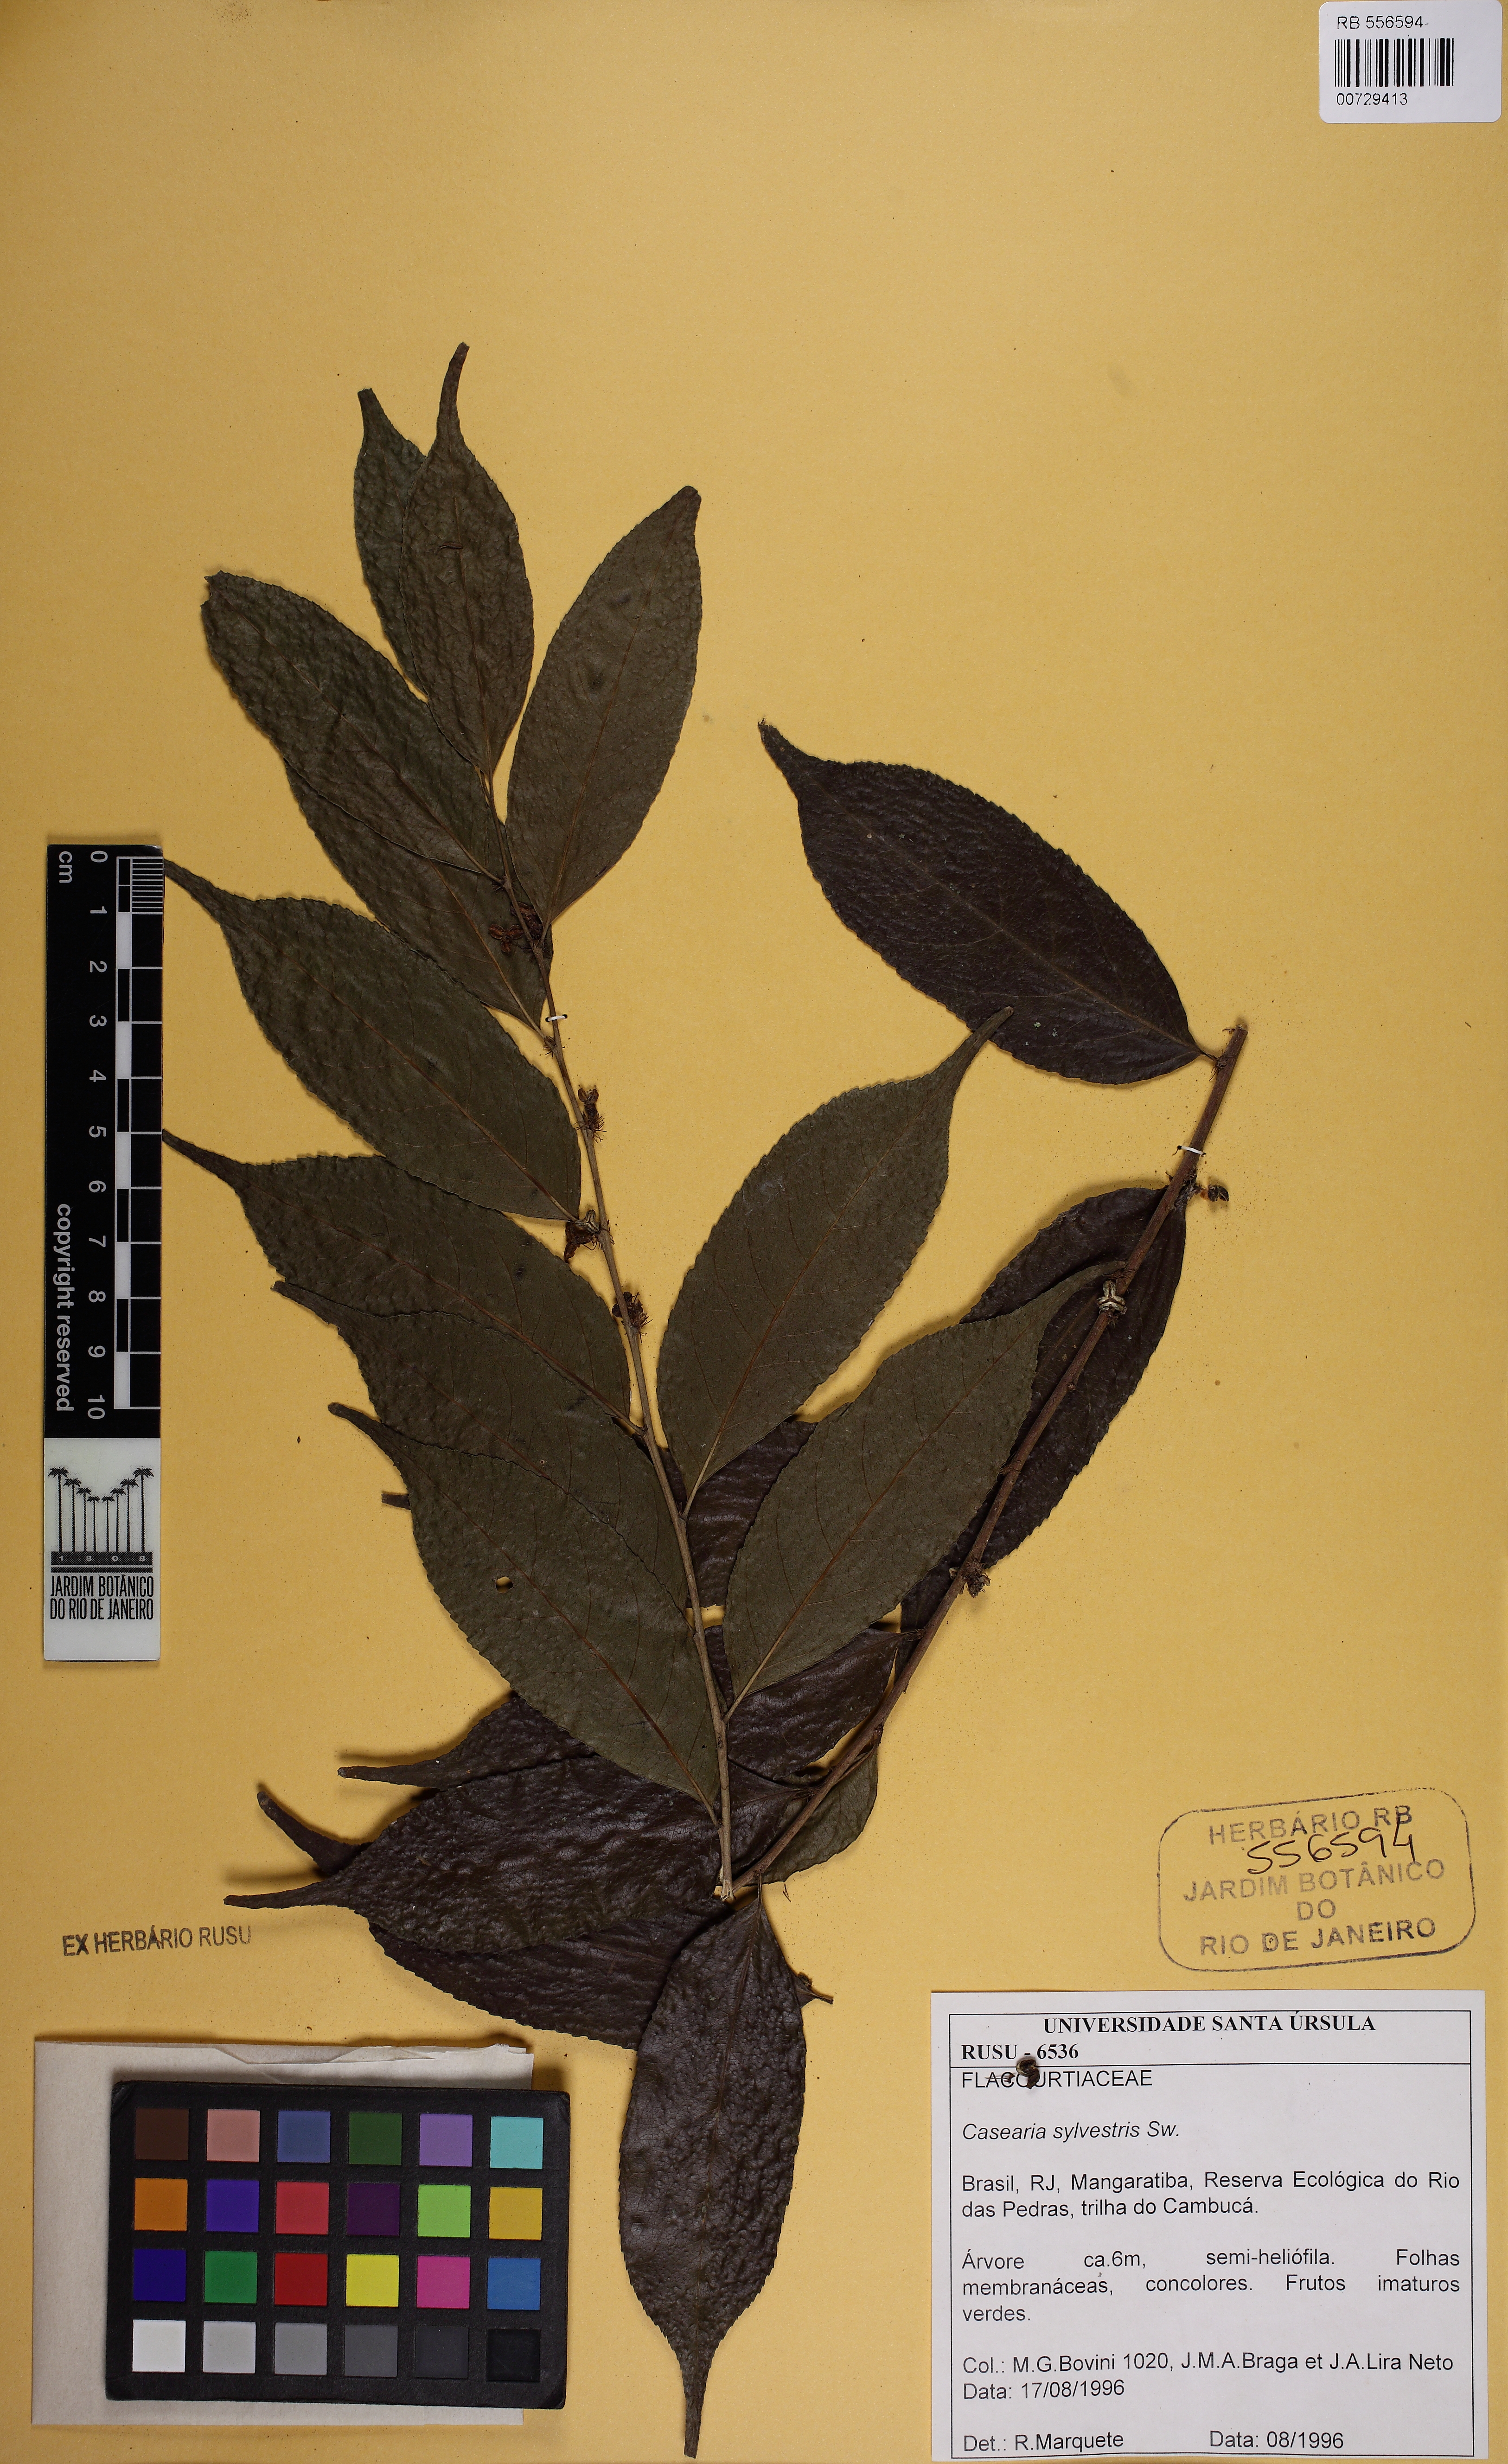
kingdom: Plantae
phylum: Tracheophyta
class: Magnoliopsida
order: Malpighiales
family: Salicaceae
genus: Casearia
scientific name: Casearia sylvestris
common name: Wild sage
